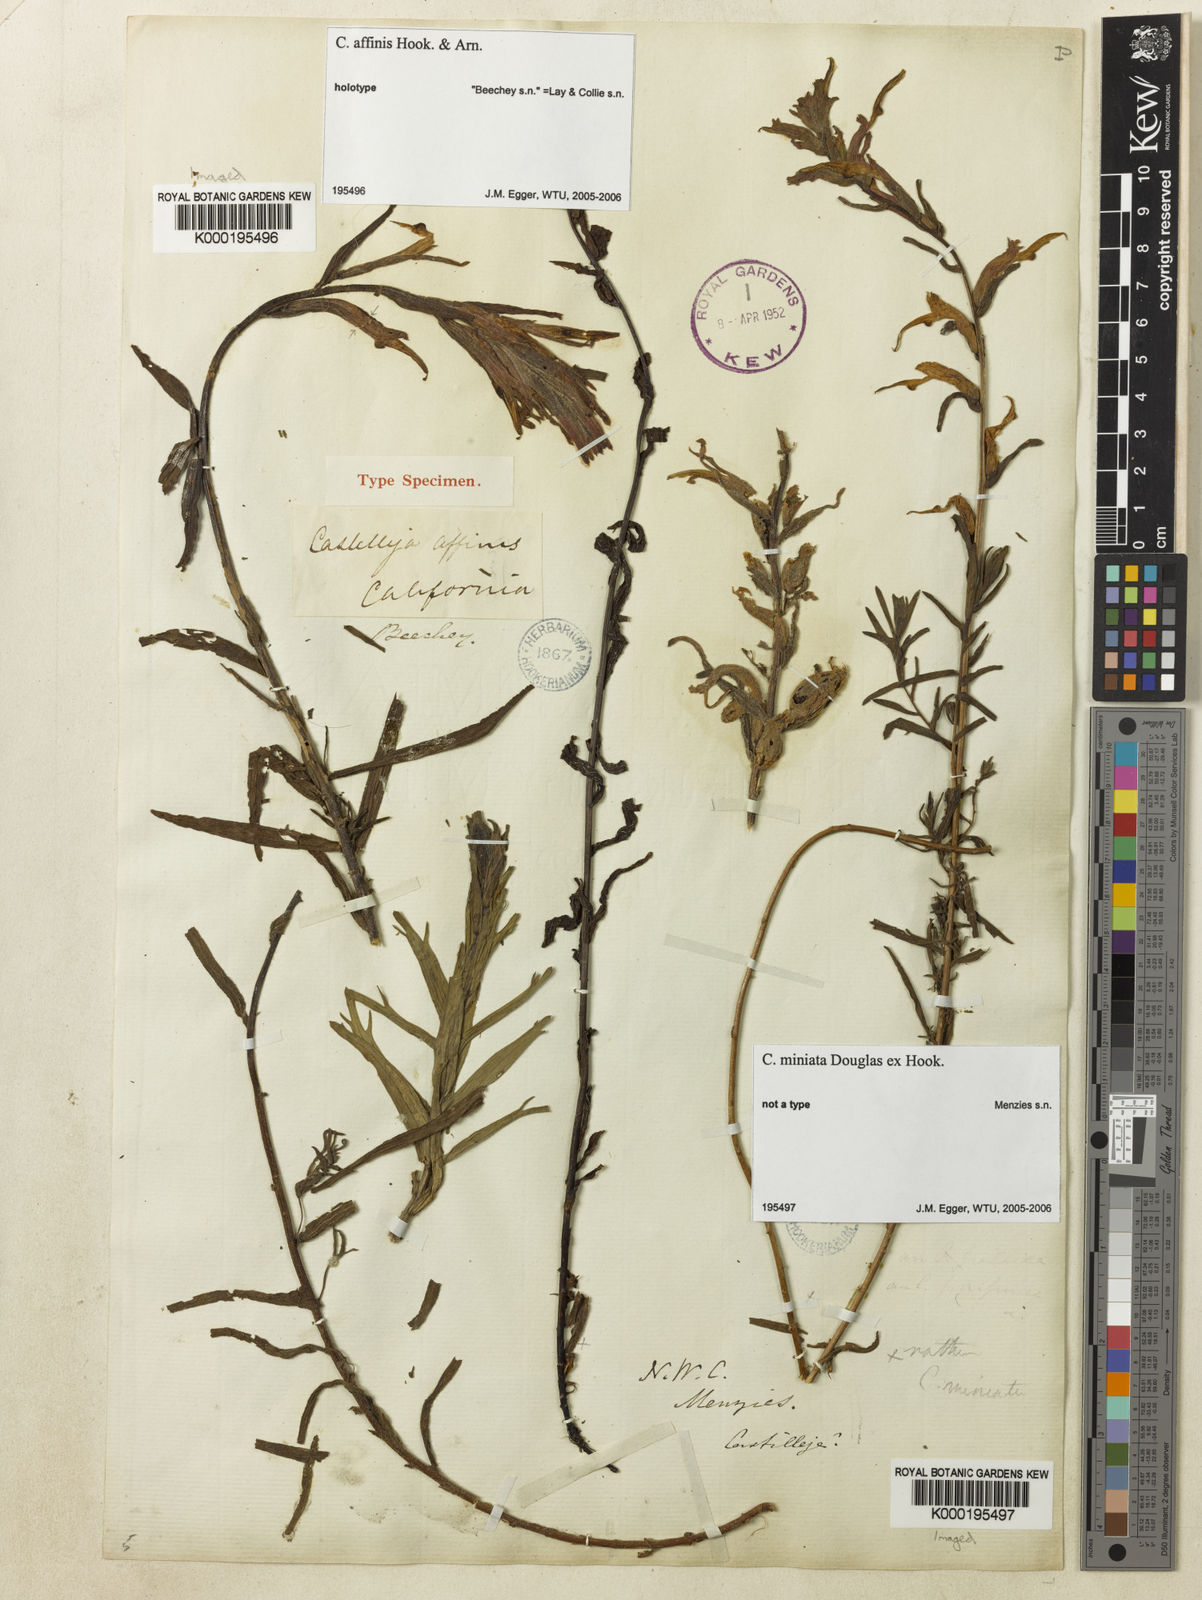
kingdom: Plantae
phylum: Tracheophyta
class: Magnoliopsida
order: Lamiales
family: Orobanchaceae
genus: Castilleja
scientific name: Castilleja affinis
